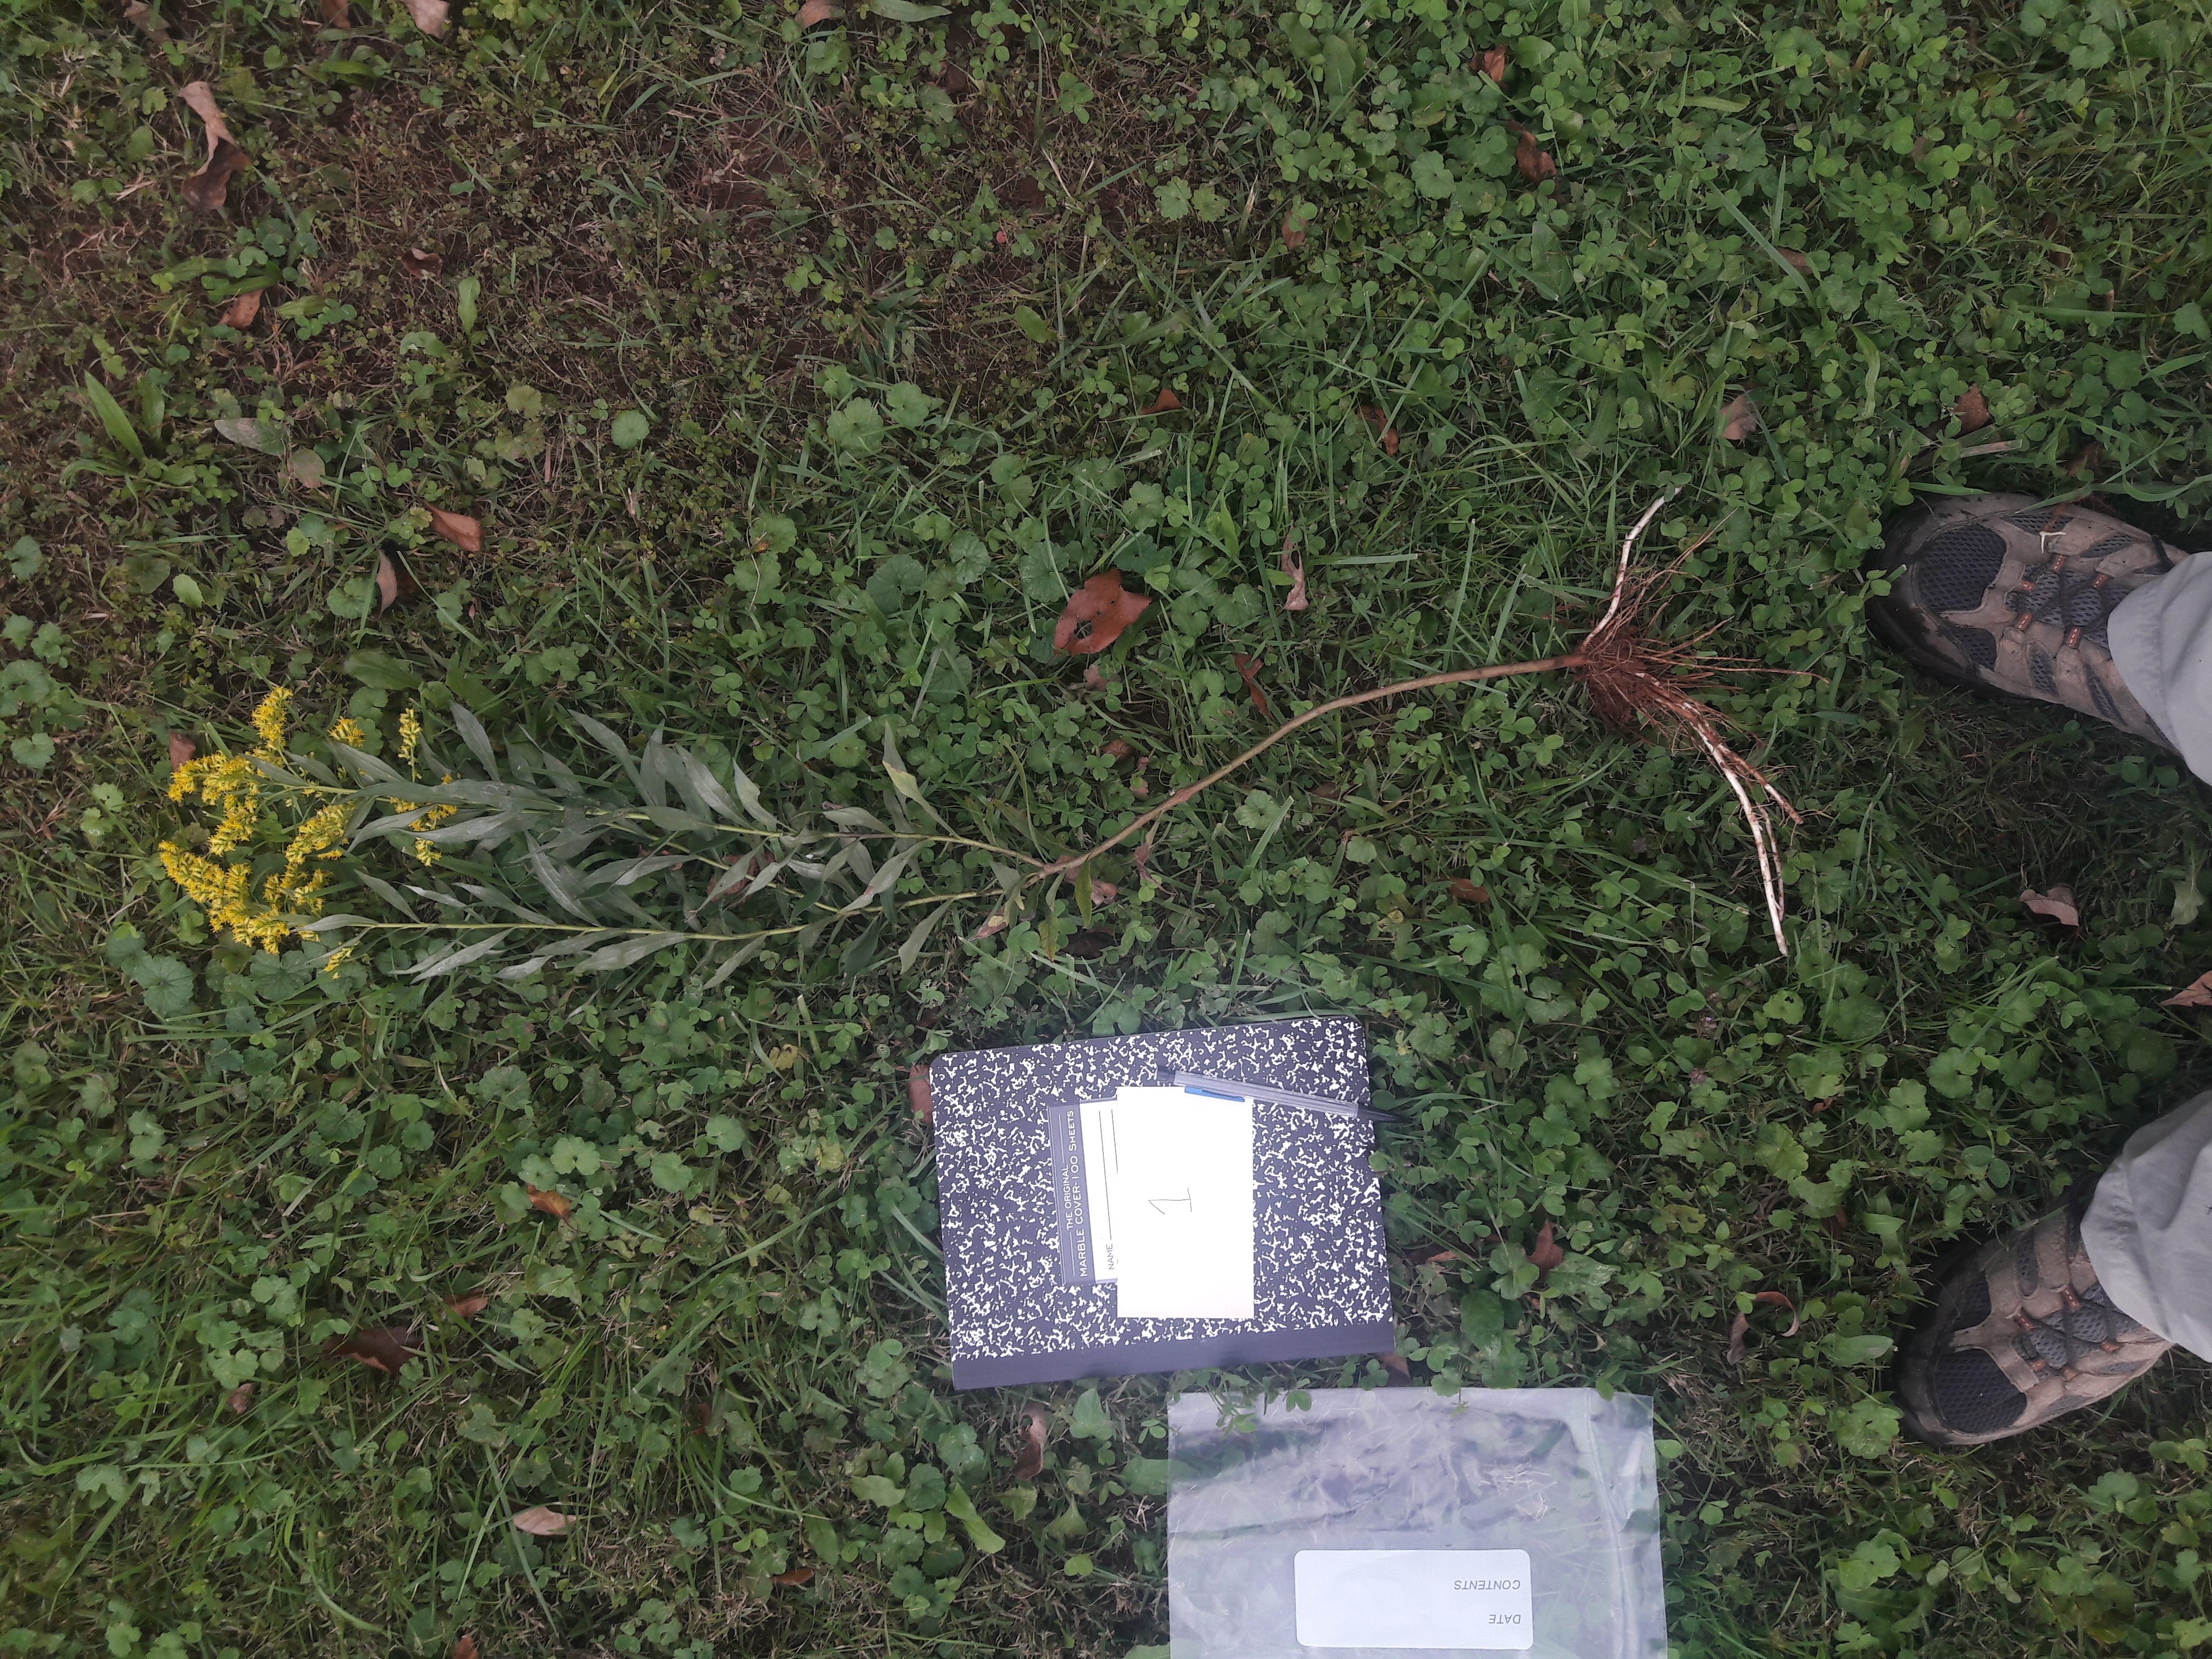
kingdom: Plantae
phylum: Tracheophyta
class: Magnoliopsida
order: Asterales
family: Asteraceae
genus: Solidago
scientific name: Solidago altissima
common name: Late Goldenrod
